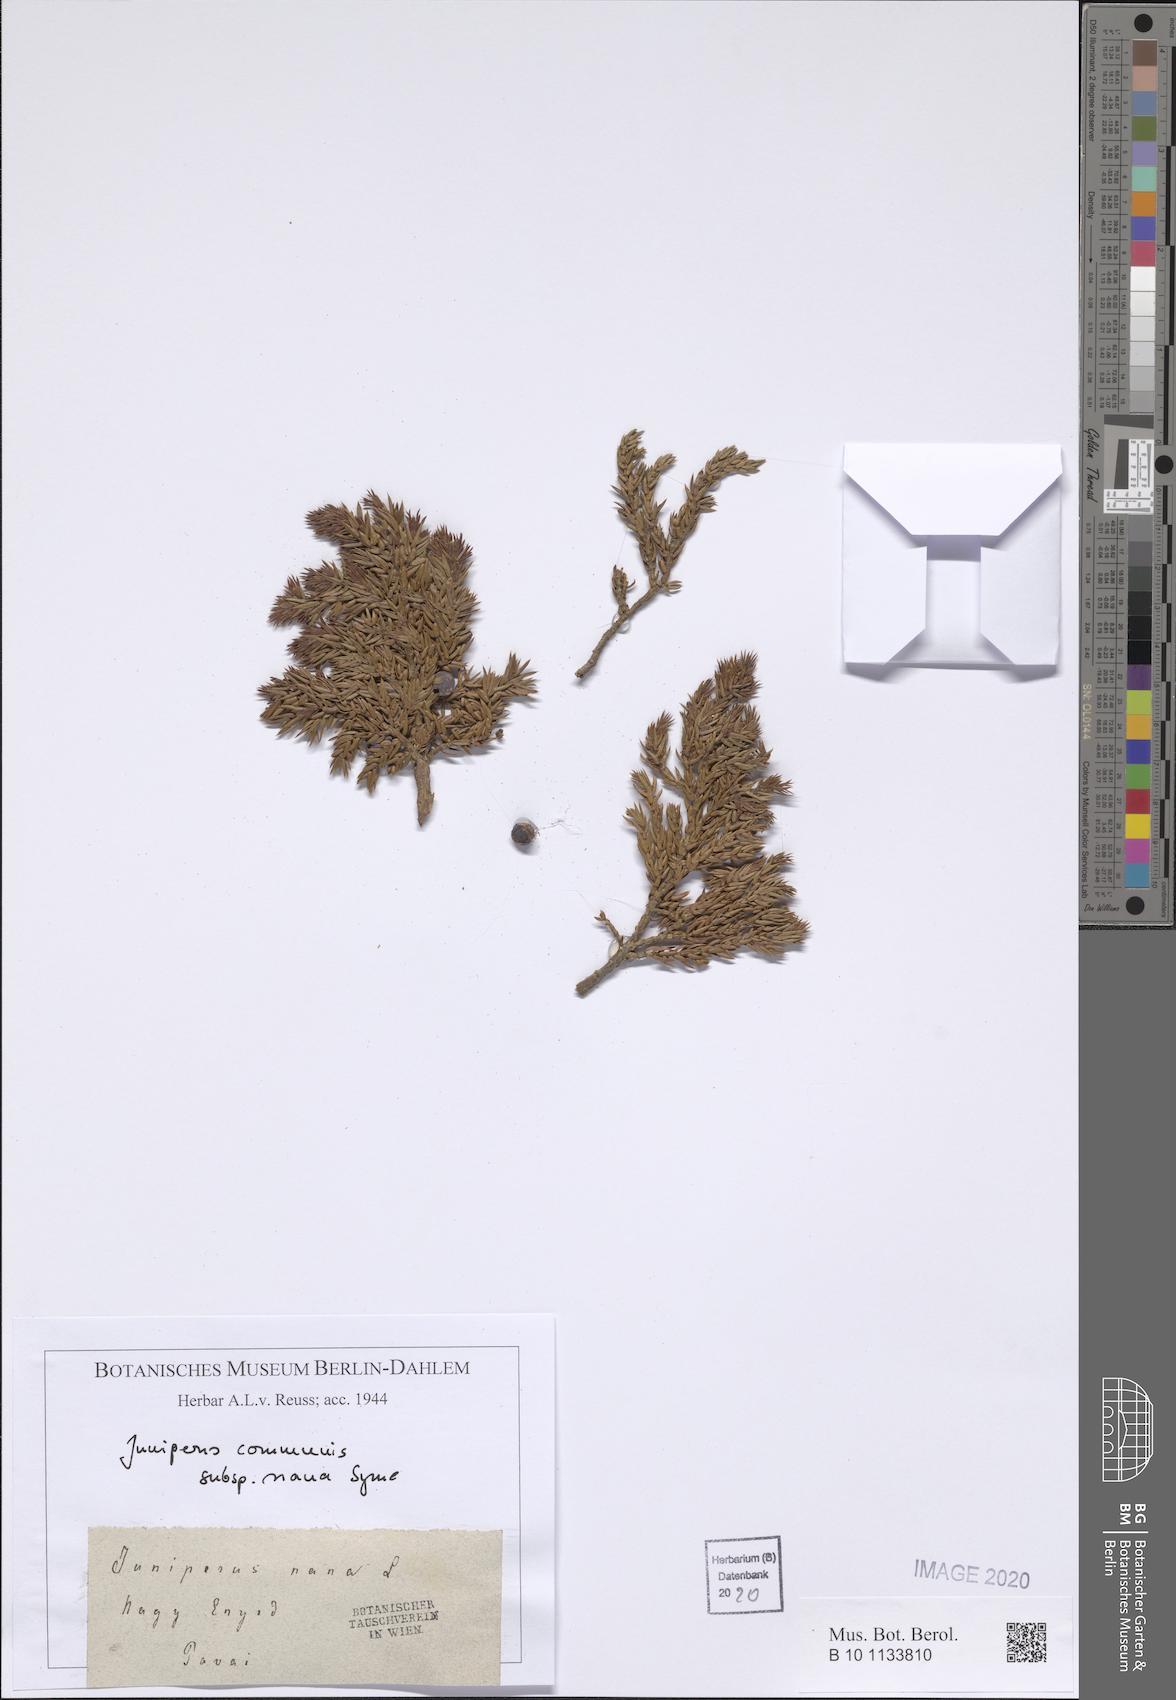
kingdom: Plantae
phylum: Tracheophyta
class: Pinopsida
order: Pinales
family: Cupressaceae
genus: Juniperus
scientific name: Juniperus communis
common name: Common juniper
